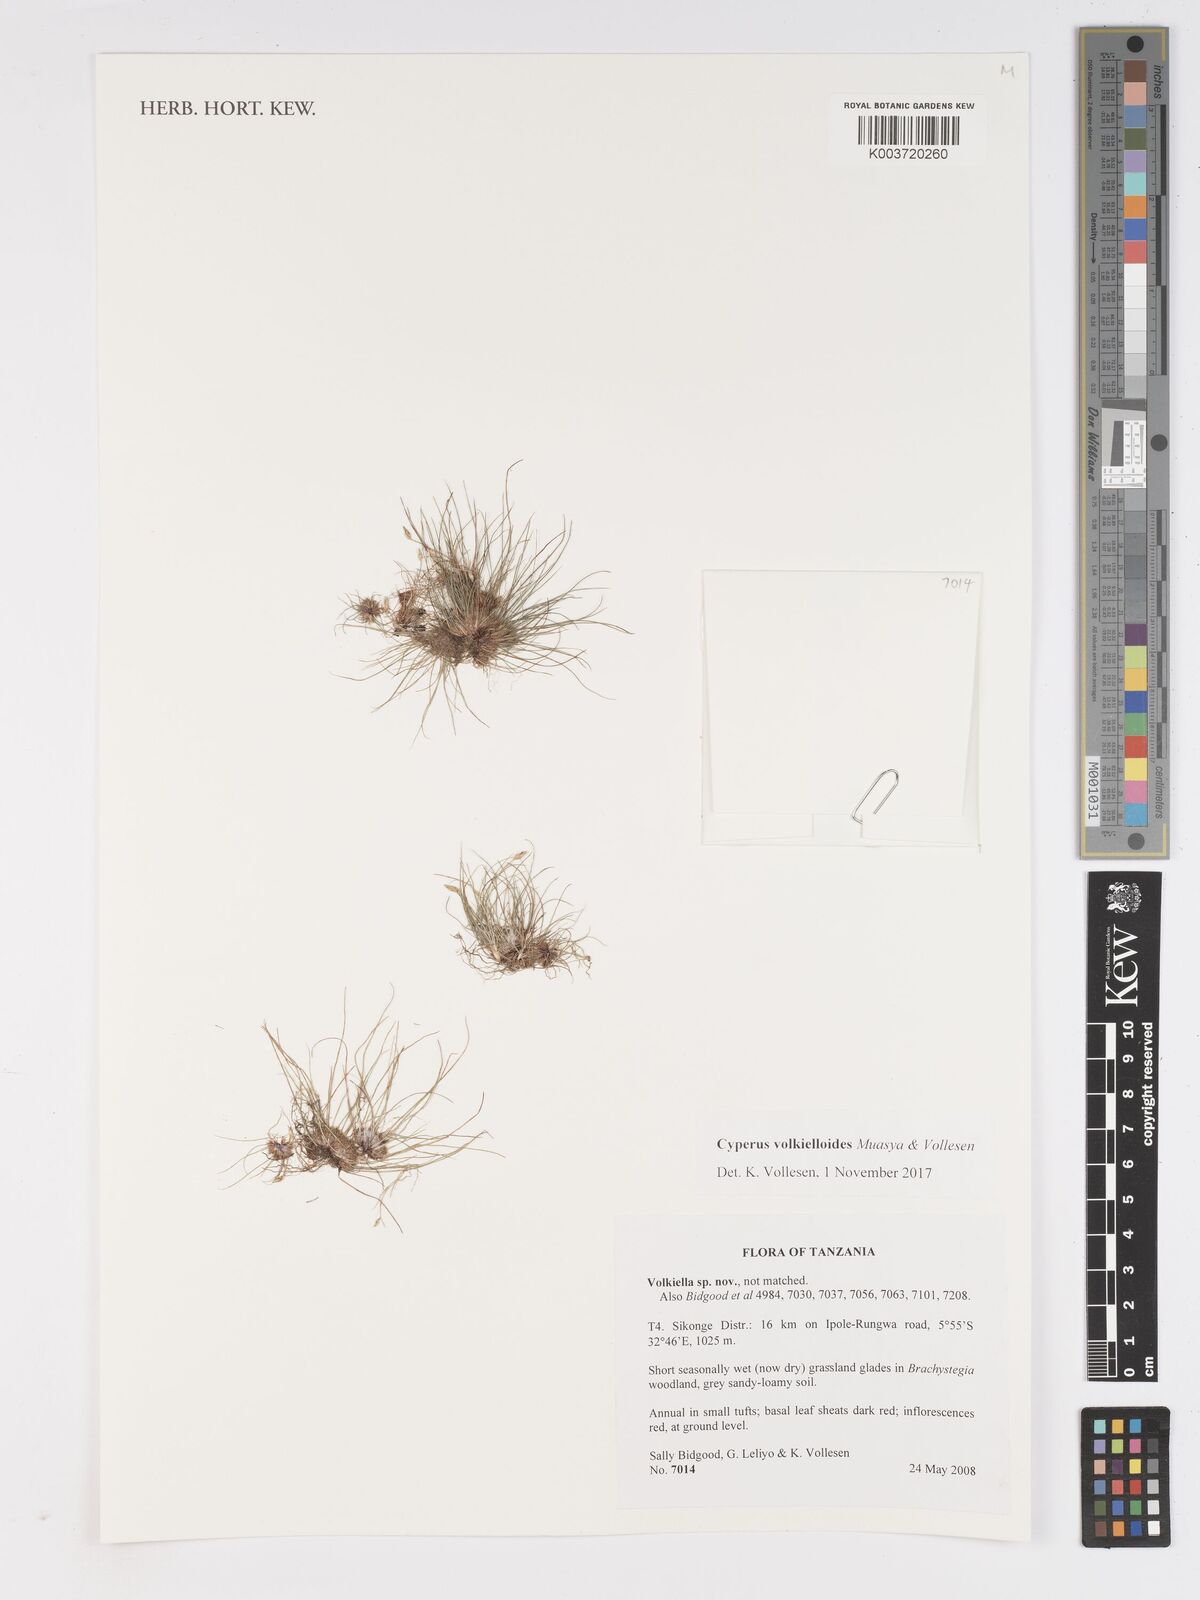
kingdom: Plantae
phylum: Tracheophyta
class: Liliopsida
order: Poales
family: Cyperaceae
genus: Cyperus
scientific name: Cyperus volkielloides
